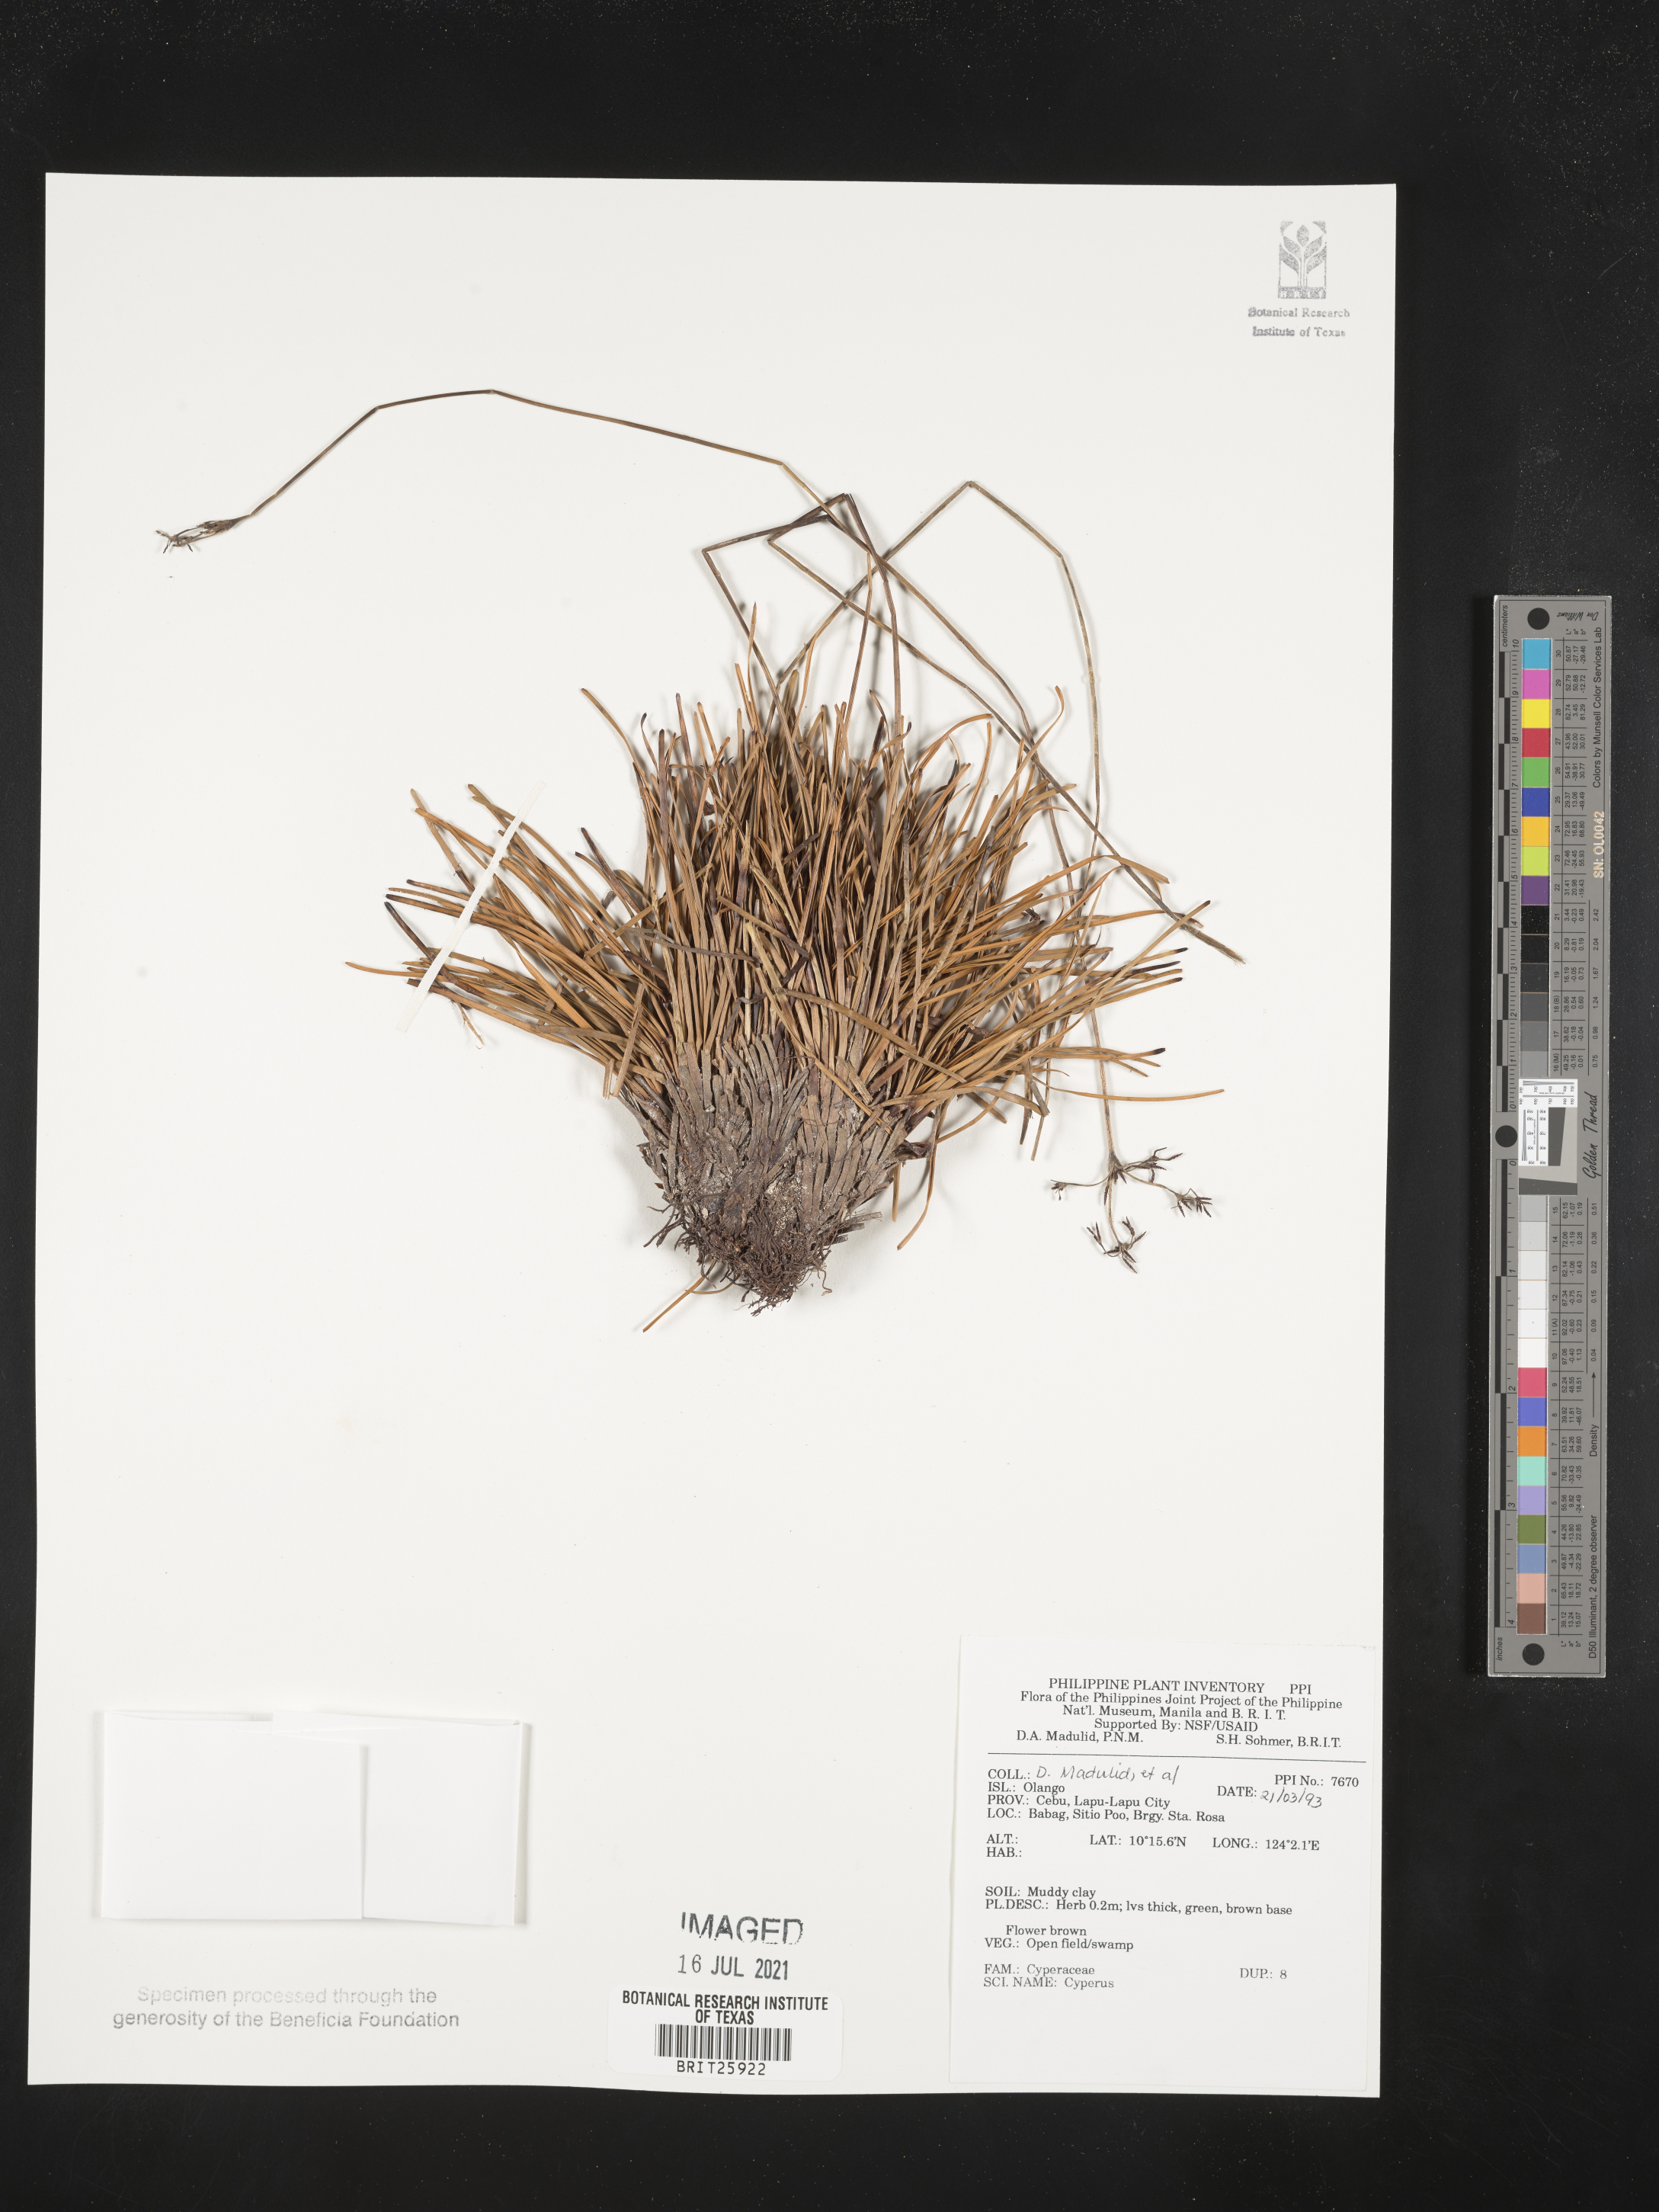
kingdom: Plantae
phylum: Tracheophyta
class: Liliopsida
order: Poales
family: Cyperaceae
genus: Cyperus
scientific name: Cyperus
